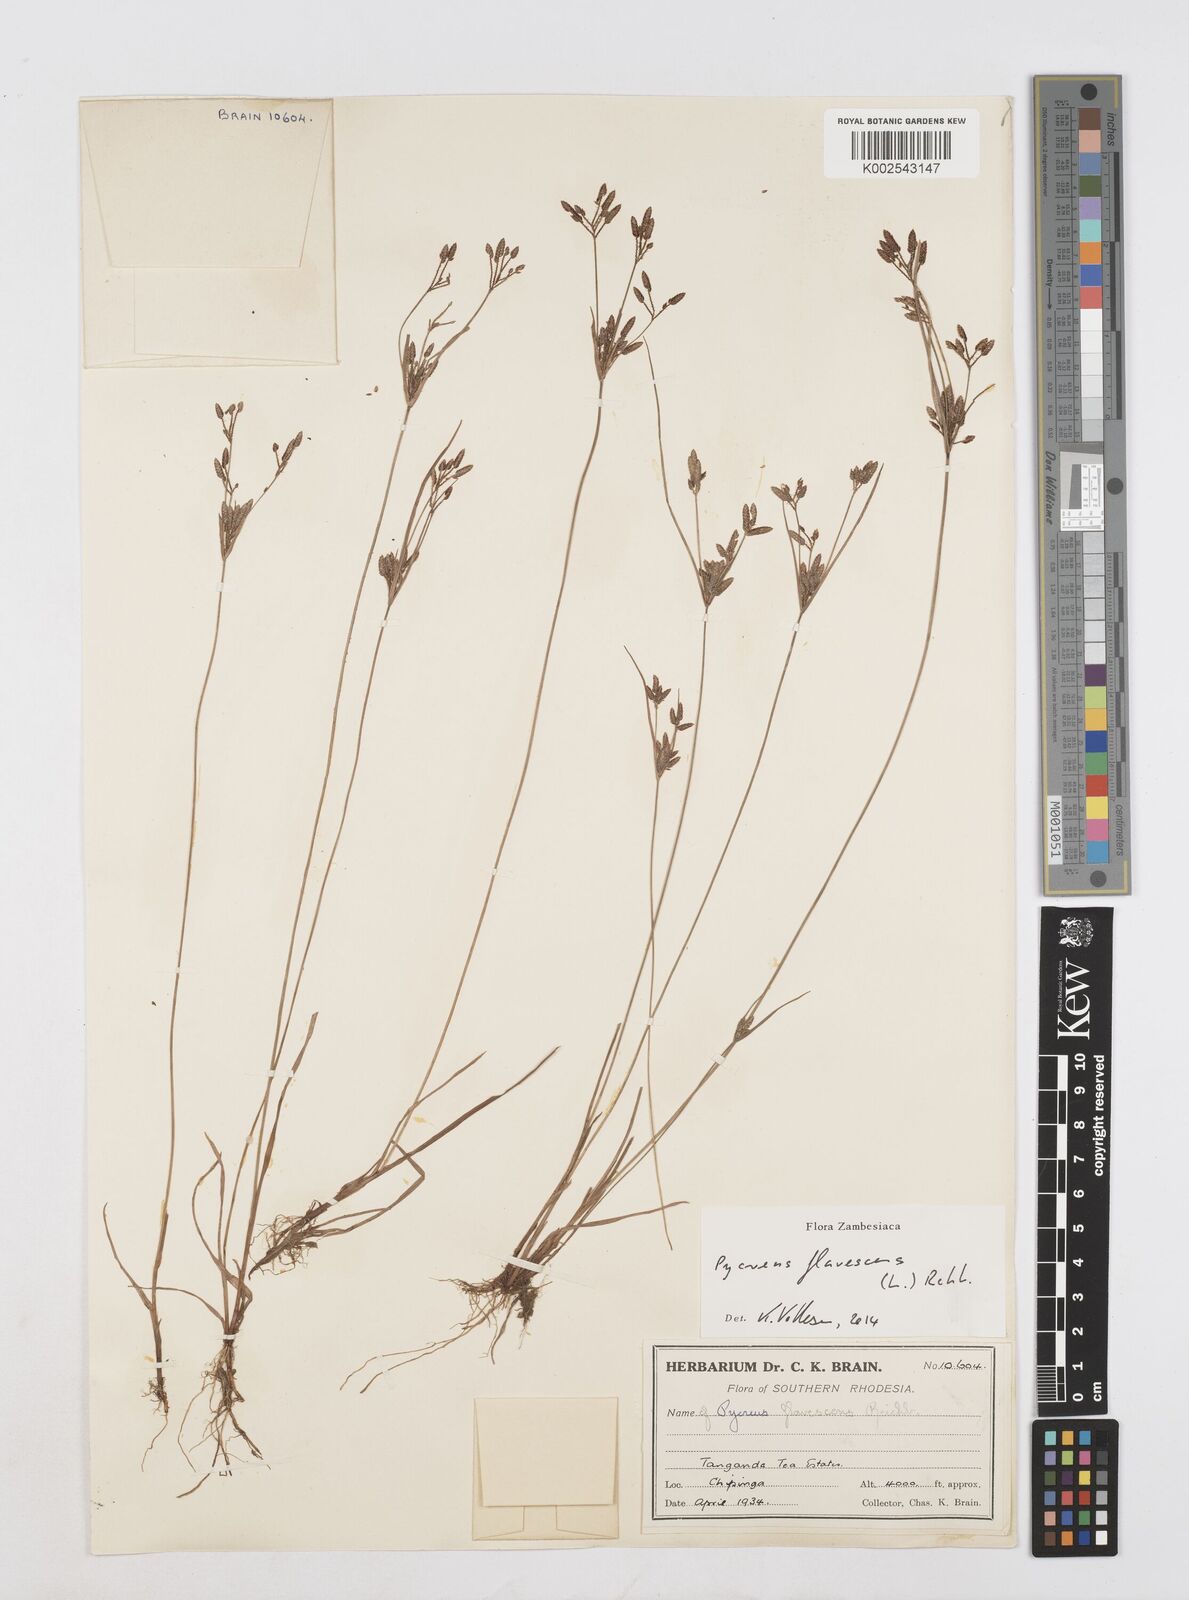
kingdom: Plantae
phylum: Tracheophyta
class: Liliopsida
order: Poales
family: Cyperaceae
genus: Cyperus
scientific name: Cyperus flavescens
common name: Yellow galingale
